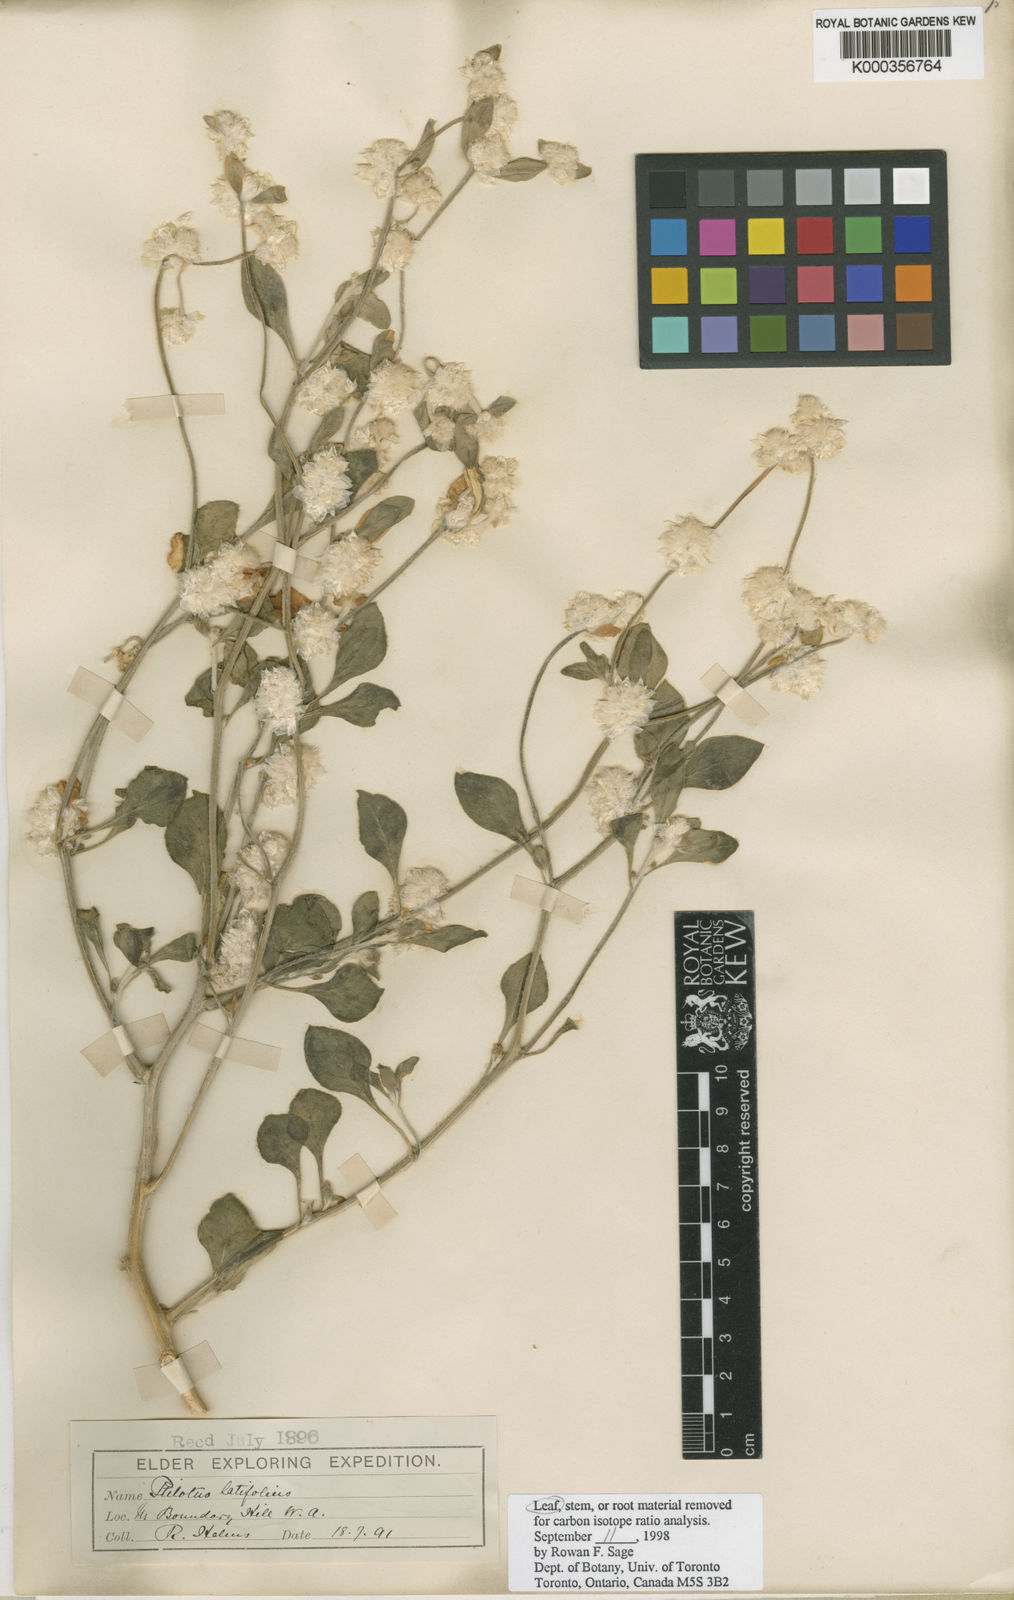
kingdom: Plantae
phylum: Tracheophyta
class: Magnoliopsida
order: Caryophyllales
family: Amaranthaceae
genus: Ptilotus
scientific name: Ptilotus latifolius
